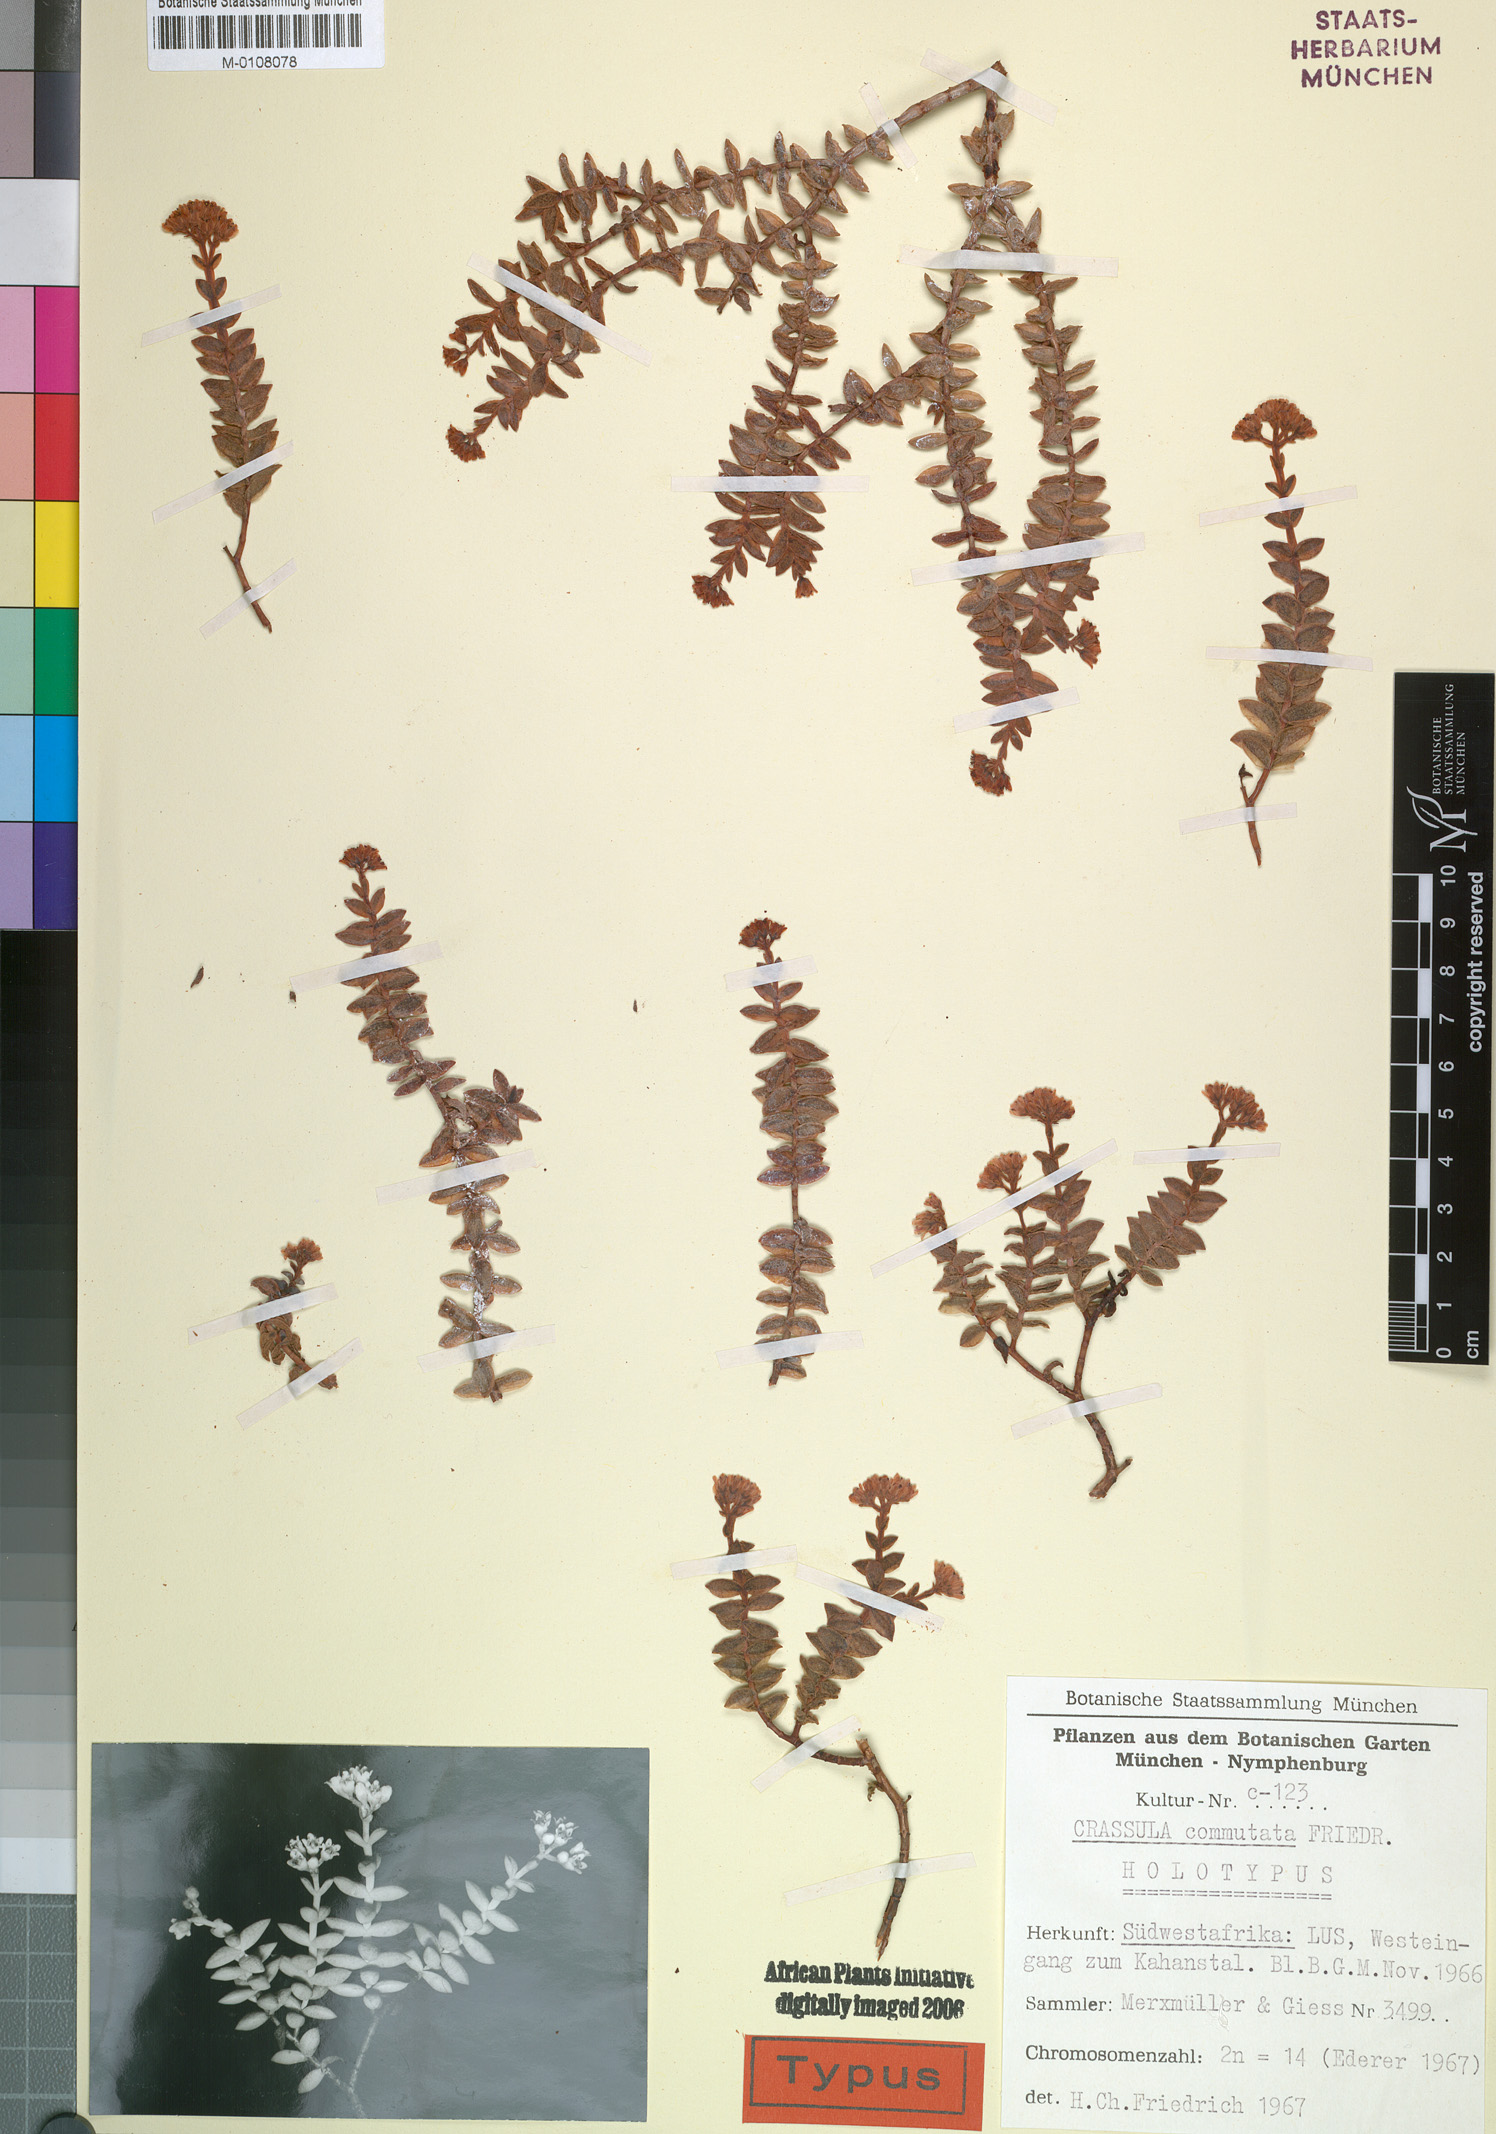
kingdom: Plantae
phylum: Tracheophyta
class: Magnoliopsida
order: Saxifragales
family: Crassulaceae
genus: Crassula
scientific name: Crassula rupestris
